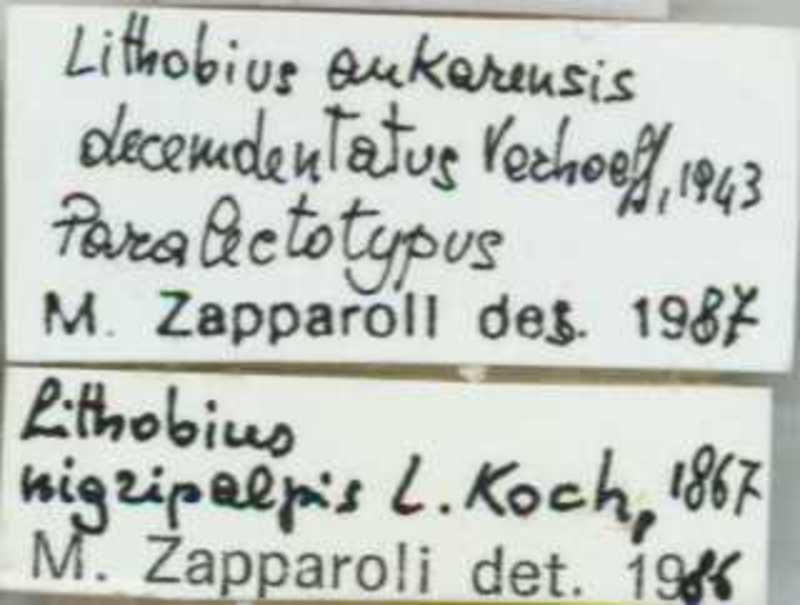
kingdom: Animalia
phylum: Arthropoda
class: Chilopoda
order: Lithobiomorpha
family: Lithobiidae
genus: Lithobius
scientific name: Lithobius nigripalpis
